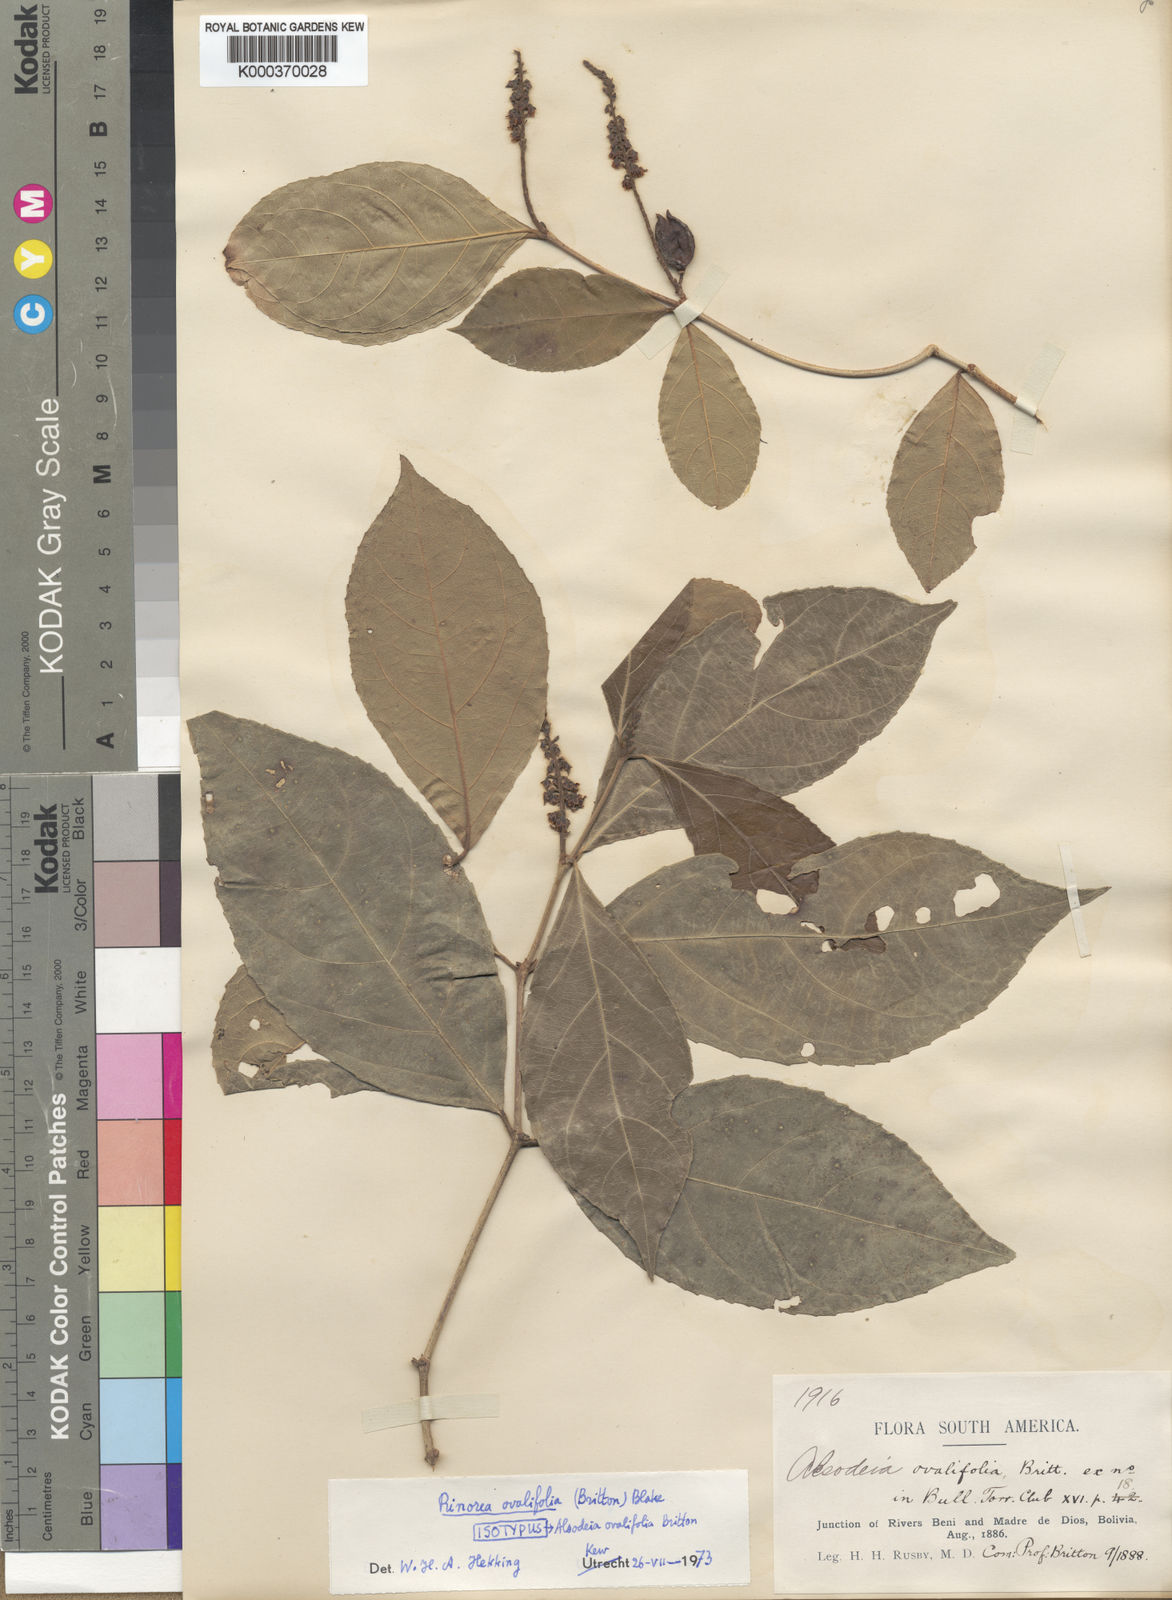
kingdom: Plantae
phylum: Tracheophyta
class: Magnoliopsida
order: Malpighiales
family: Violaceae
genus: Rinorea
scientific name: Rinorea ovalifolia
